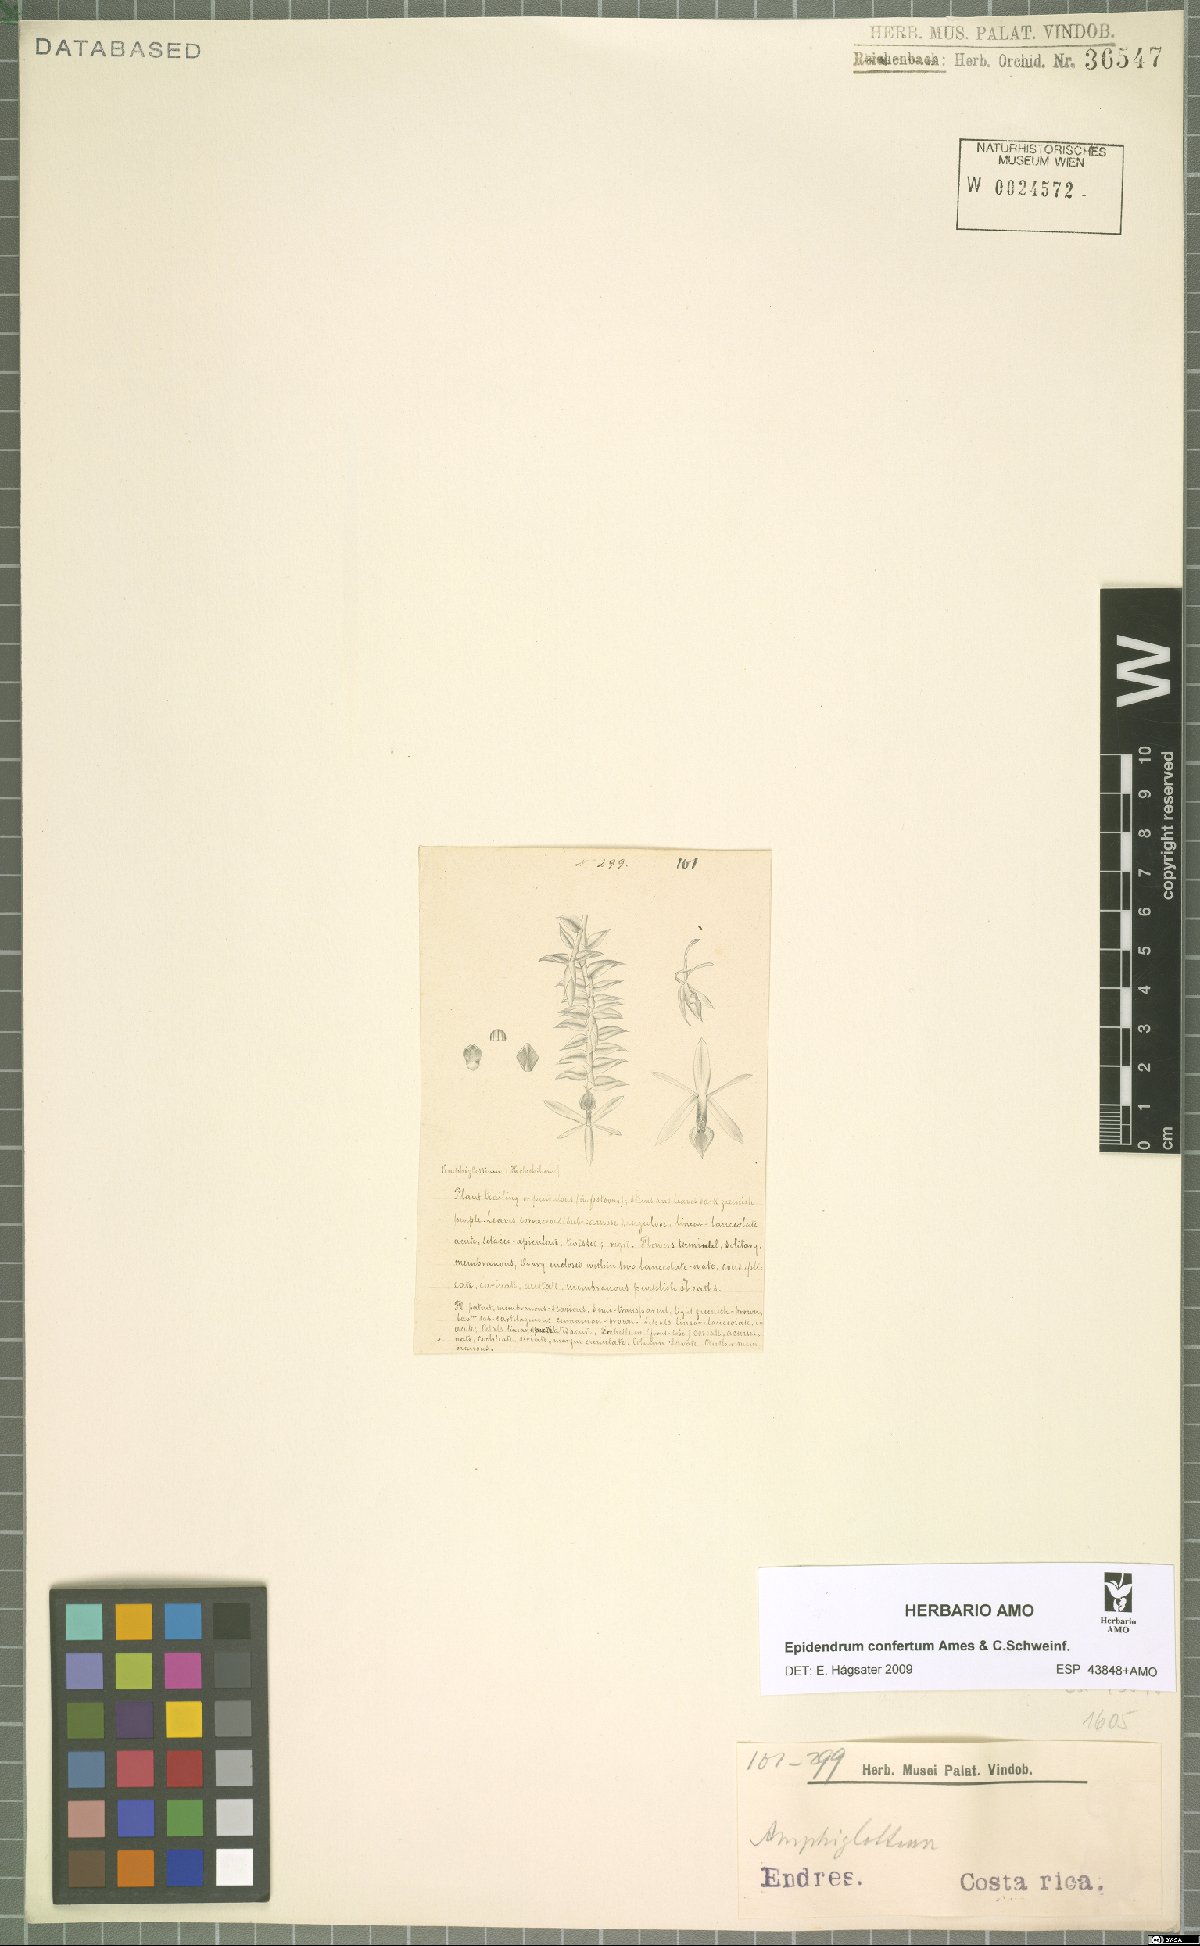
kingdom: Plantae
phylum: Tracheophyta
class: Liliopsida
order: Asparagales
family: Orchidaceae
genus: Epidendrum
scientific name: Epidendrum confertum
